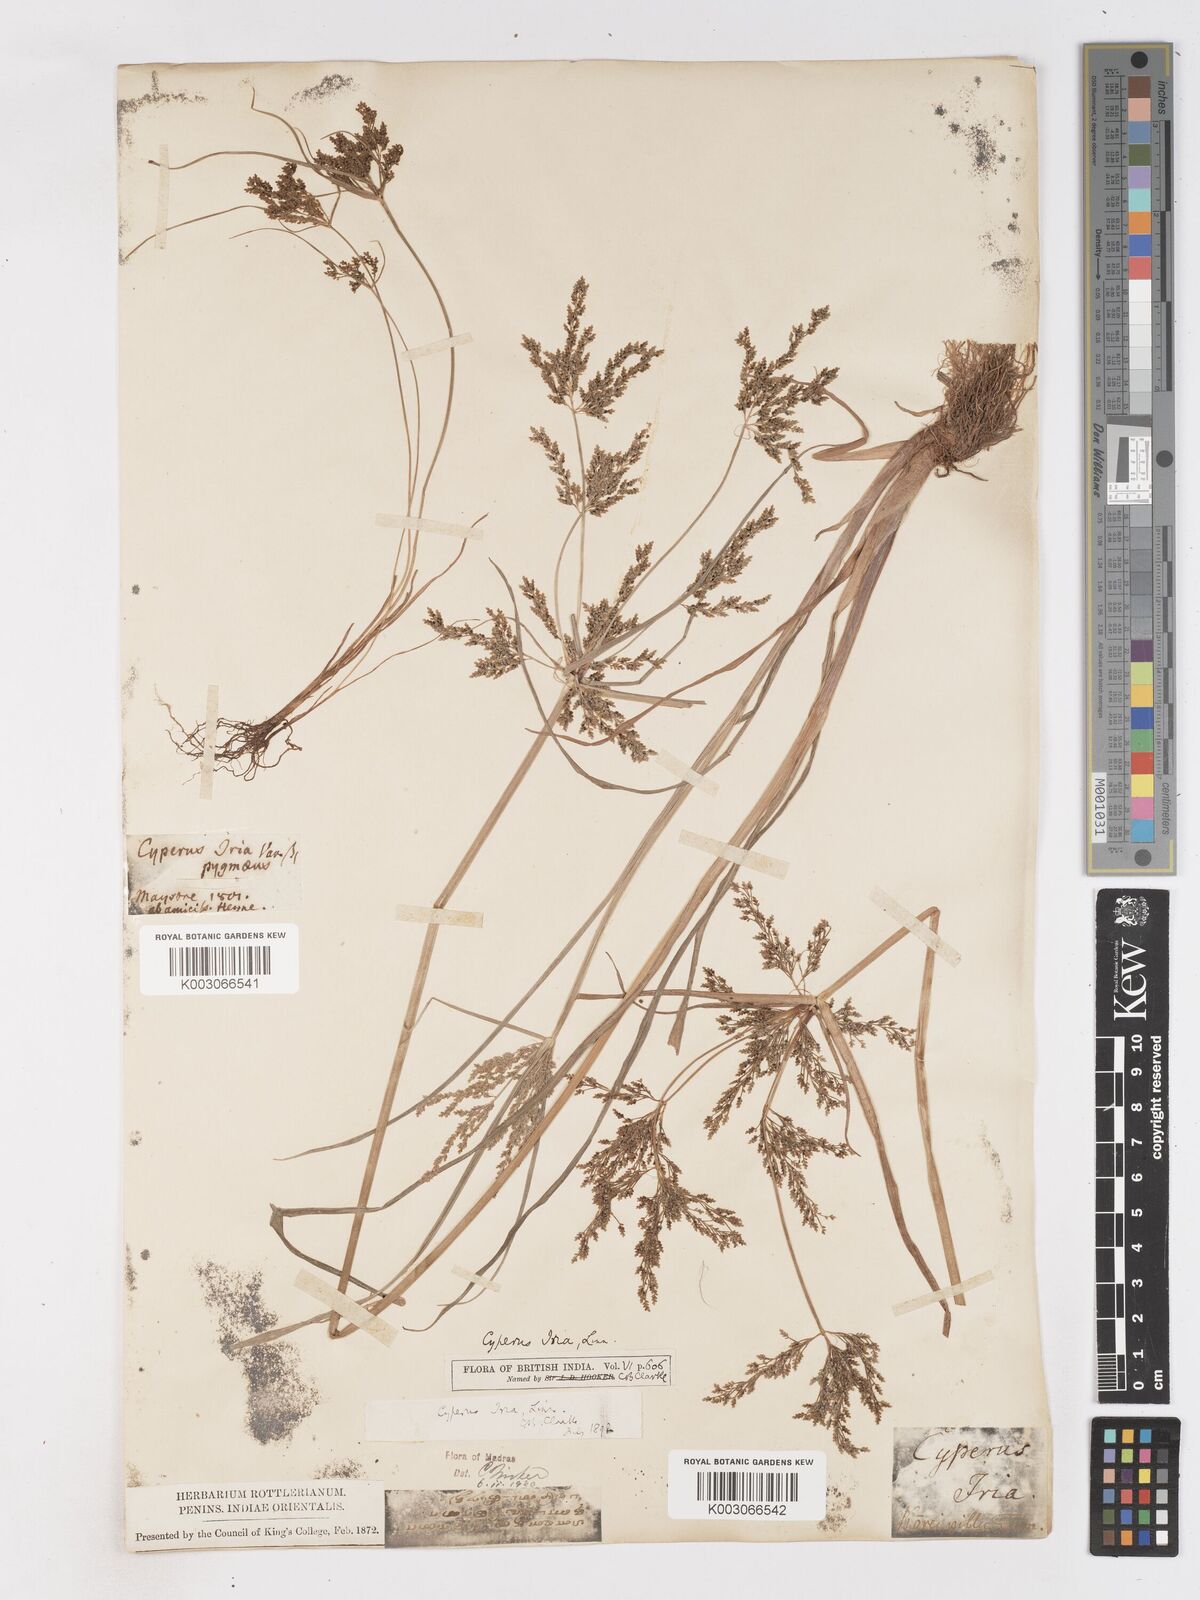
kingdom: Plantae
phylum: Tracheophyta
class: Liliopsida
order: Poales
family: Cyperaceae
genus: Cyperus
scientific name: Cyperus iria
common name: Ricefield flatsedge
